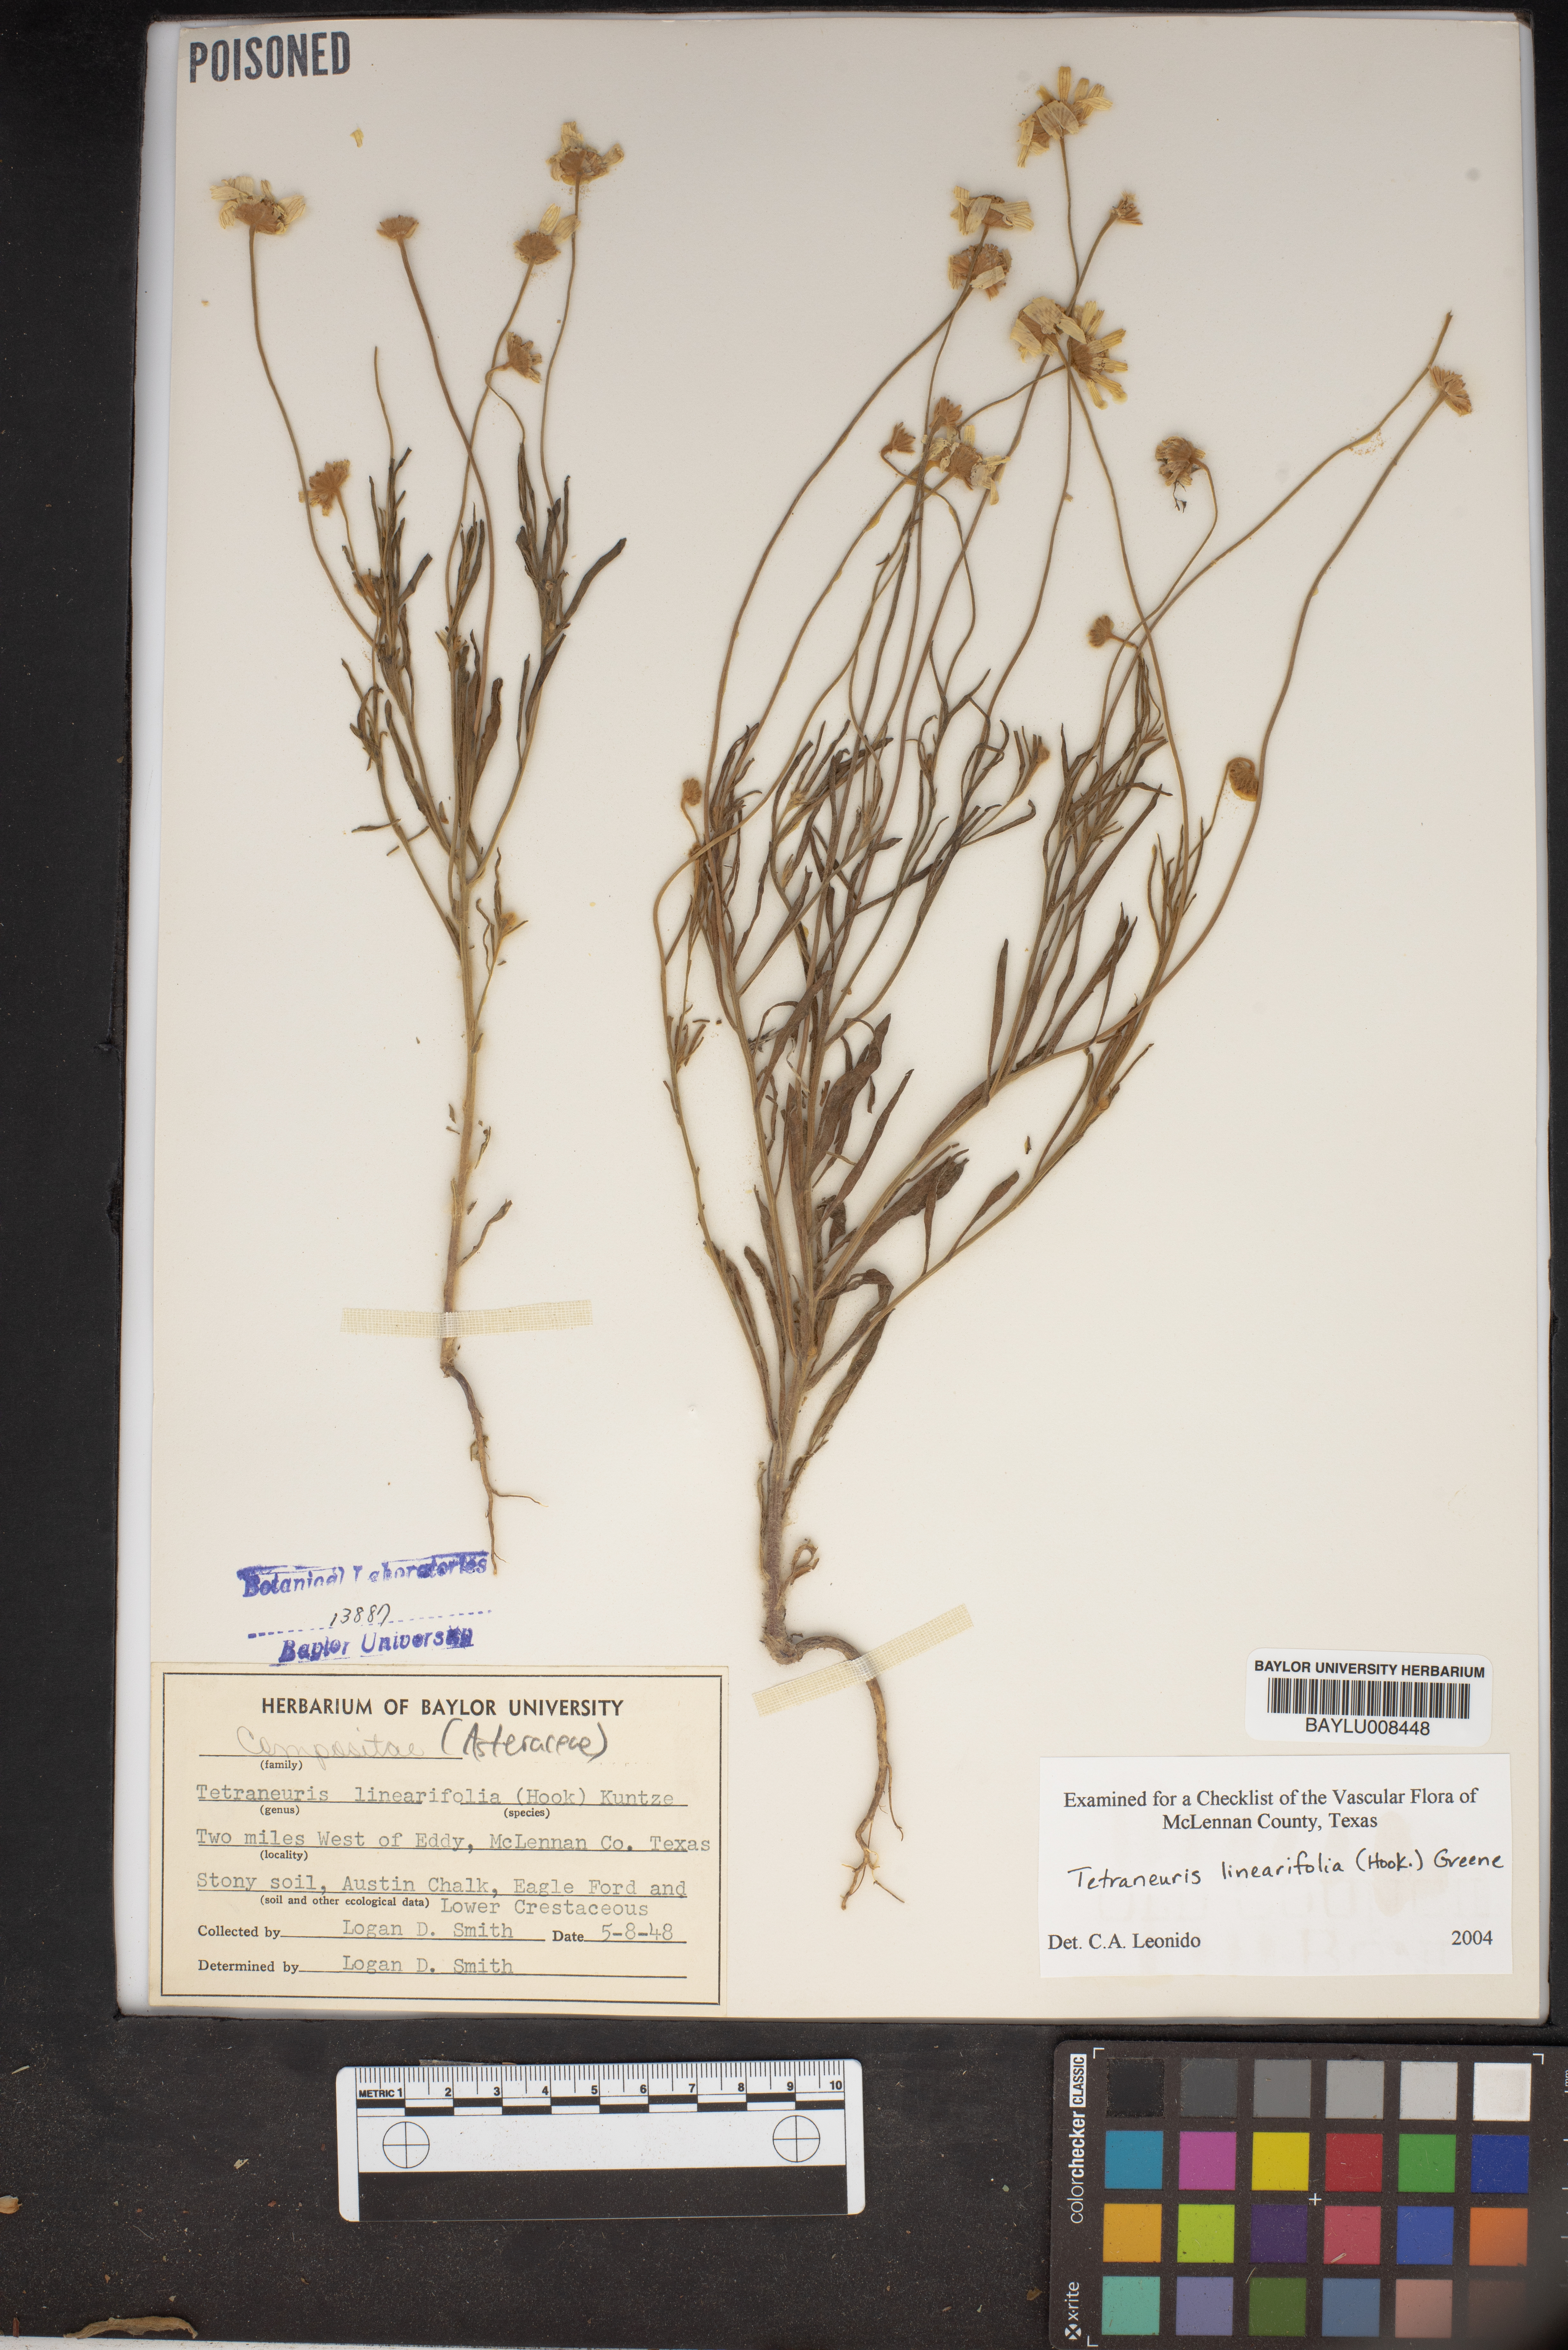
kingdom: Plantae
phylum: Tracheophyta
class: Magnoliopsida
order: Asterales
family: Asteraceae
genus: Tetraneuris
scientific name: Tetraneuris linearifolia
